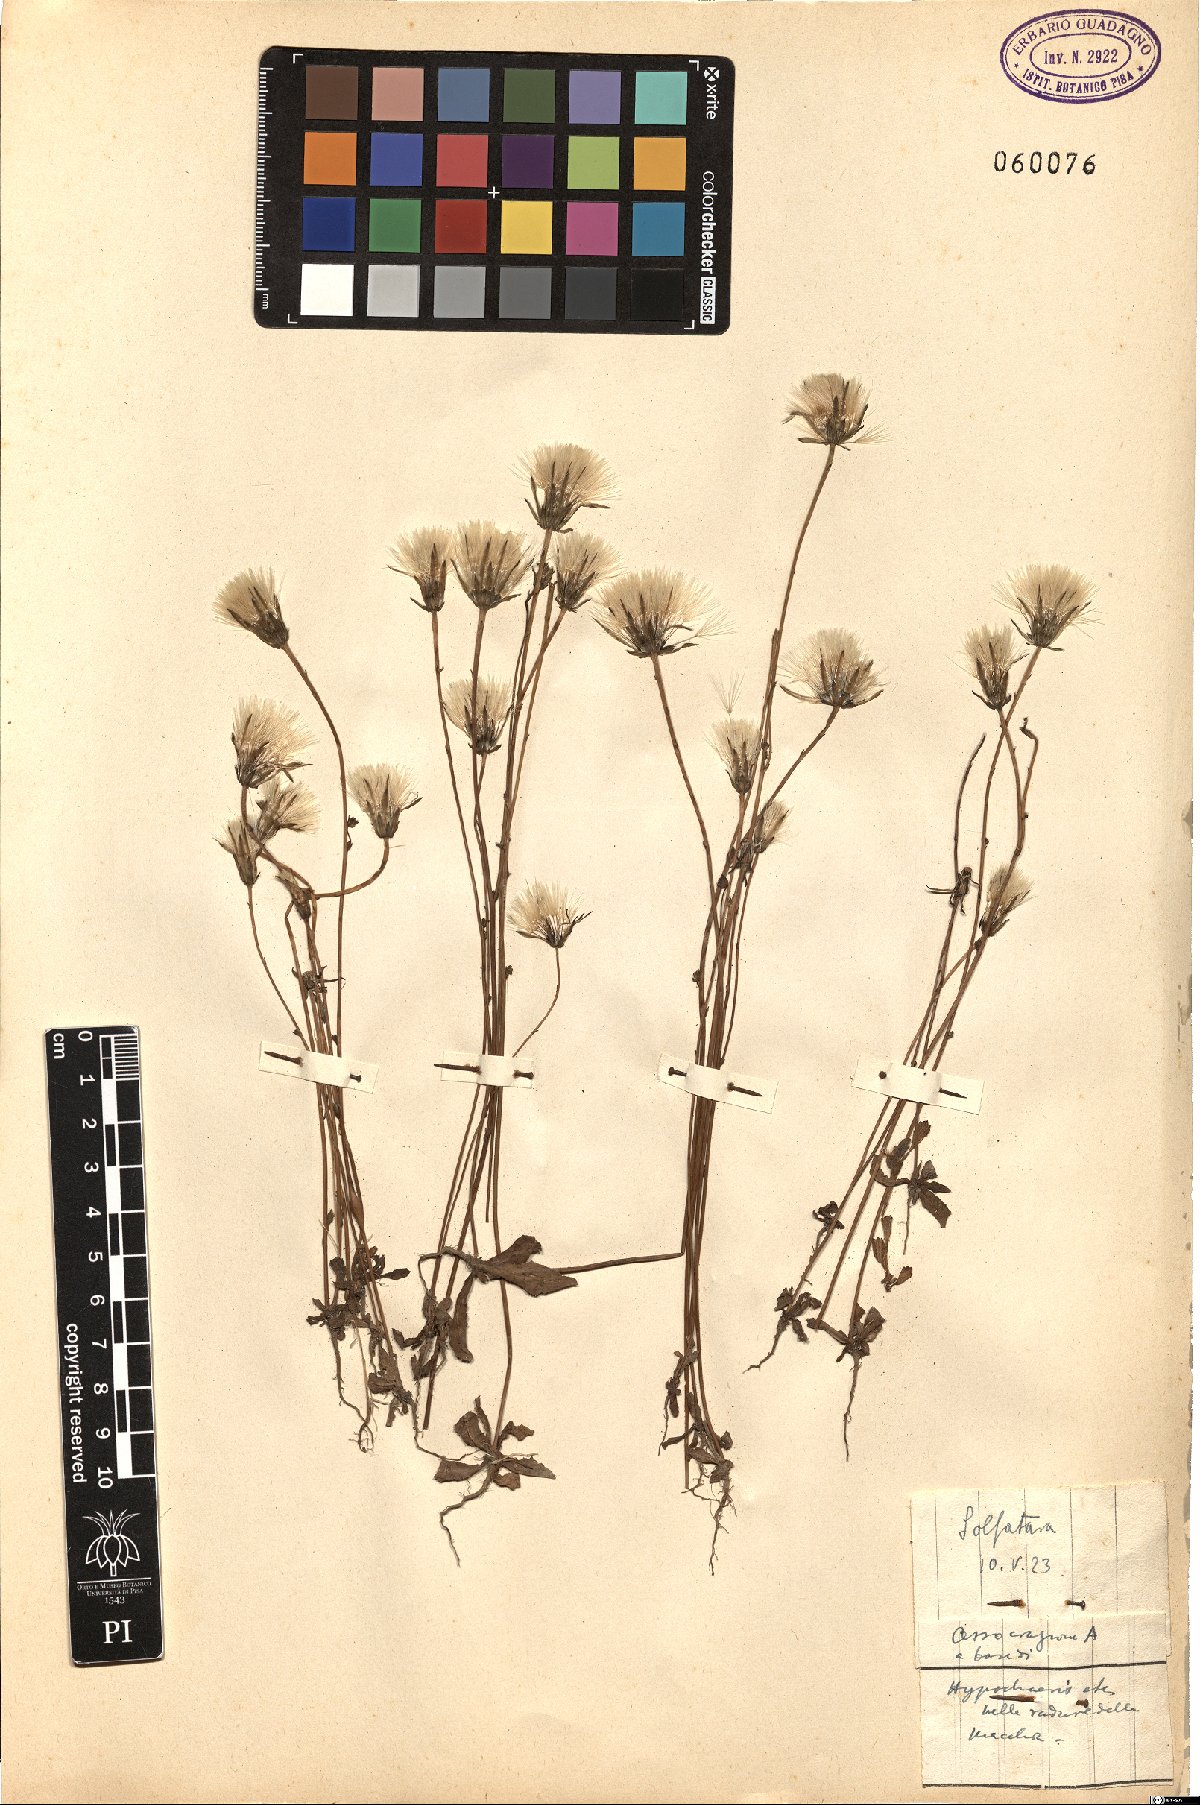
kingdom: Plantae
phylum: Tracheophyta
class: Magnoliopsida
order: Asterales
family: Asteraceae
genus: Hypochaeris
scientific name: Hypochaeris glabra
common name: Smooth catsear
